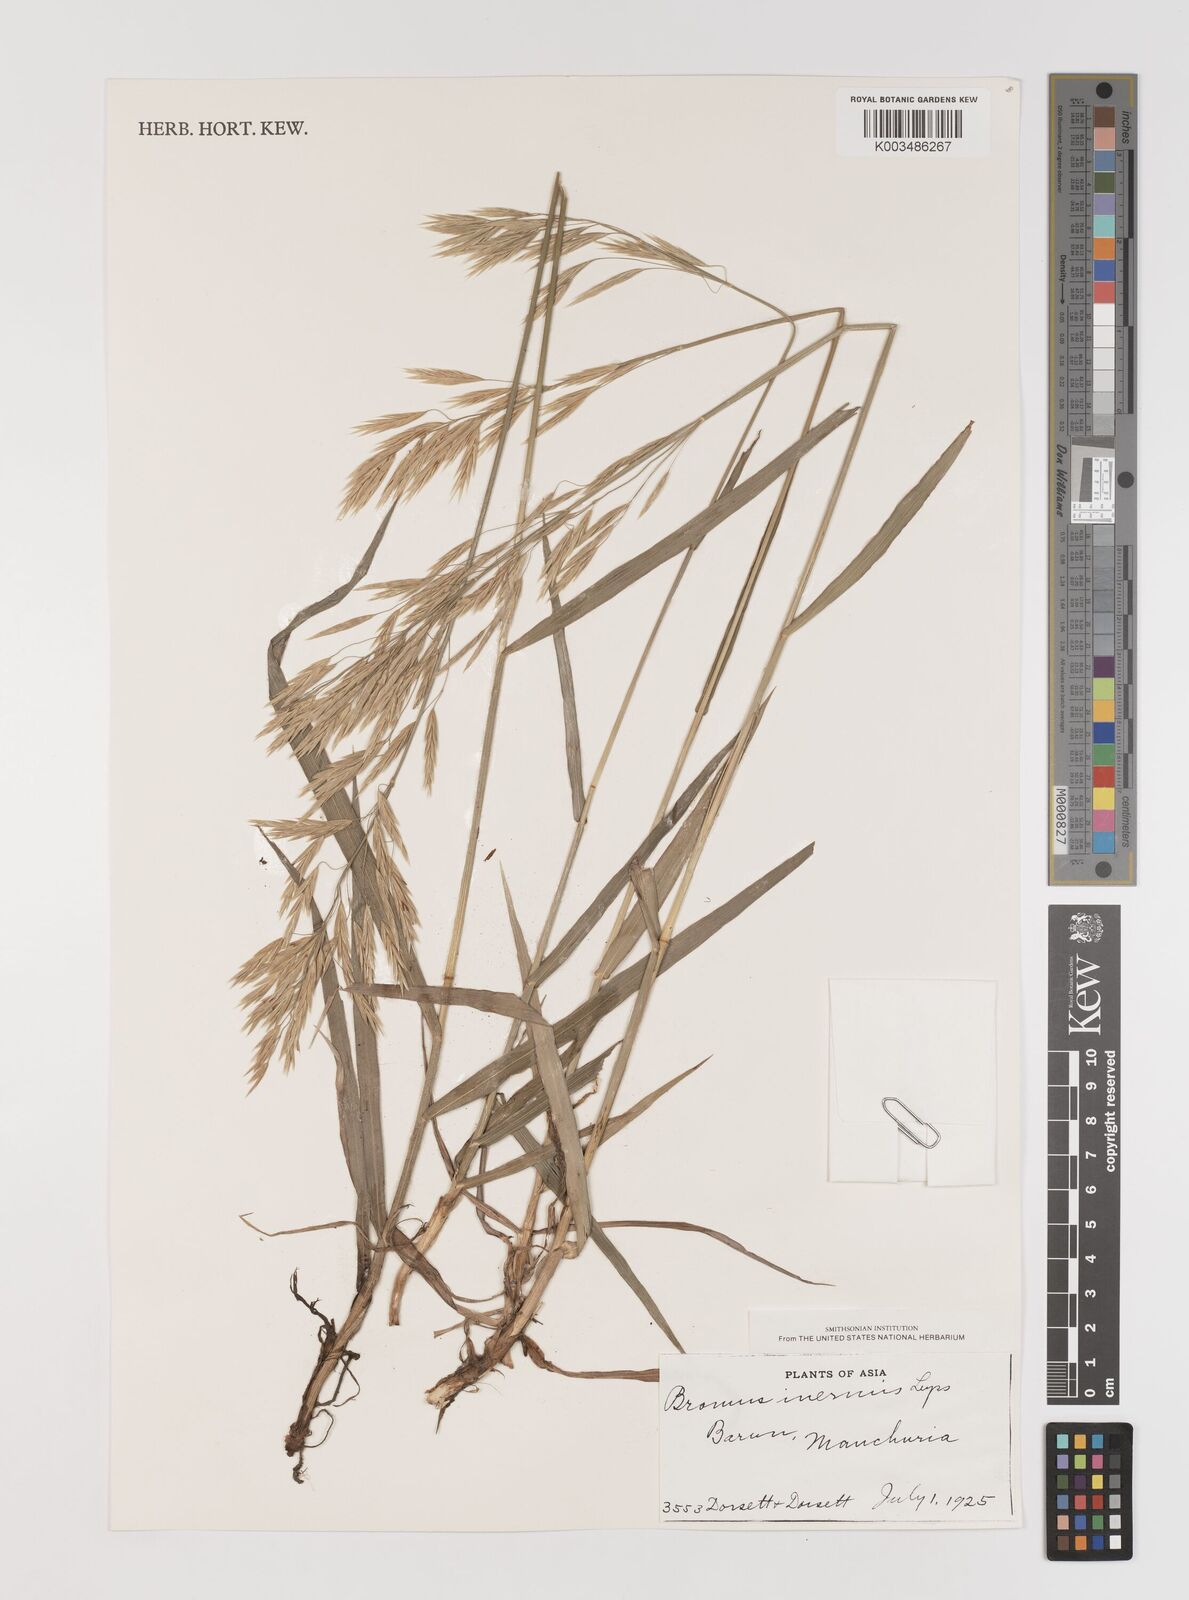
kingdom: Plantae
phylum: Tracheophyta
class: Liliopsida
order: Poales
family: Poaceae
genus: Bromus
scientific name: Bromus inermis
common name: Smooth brome
